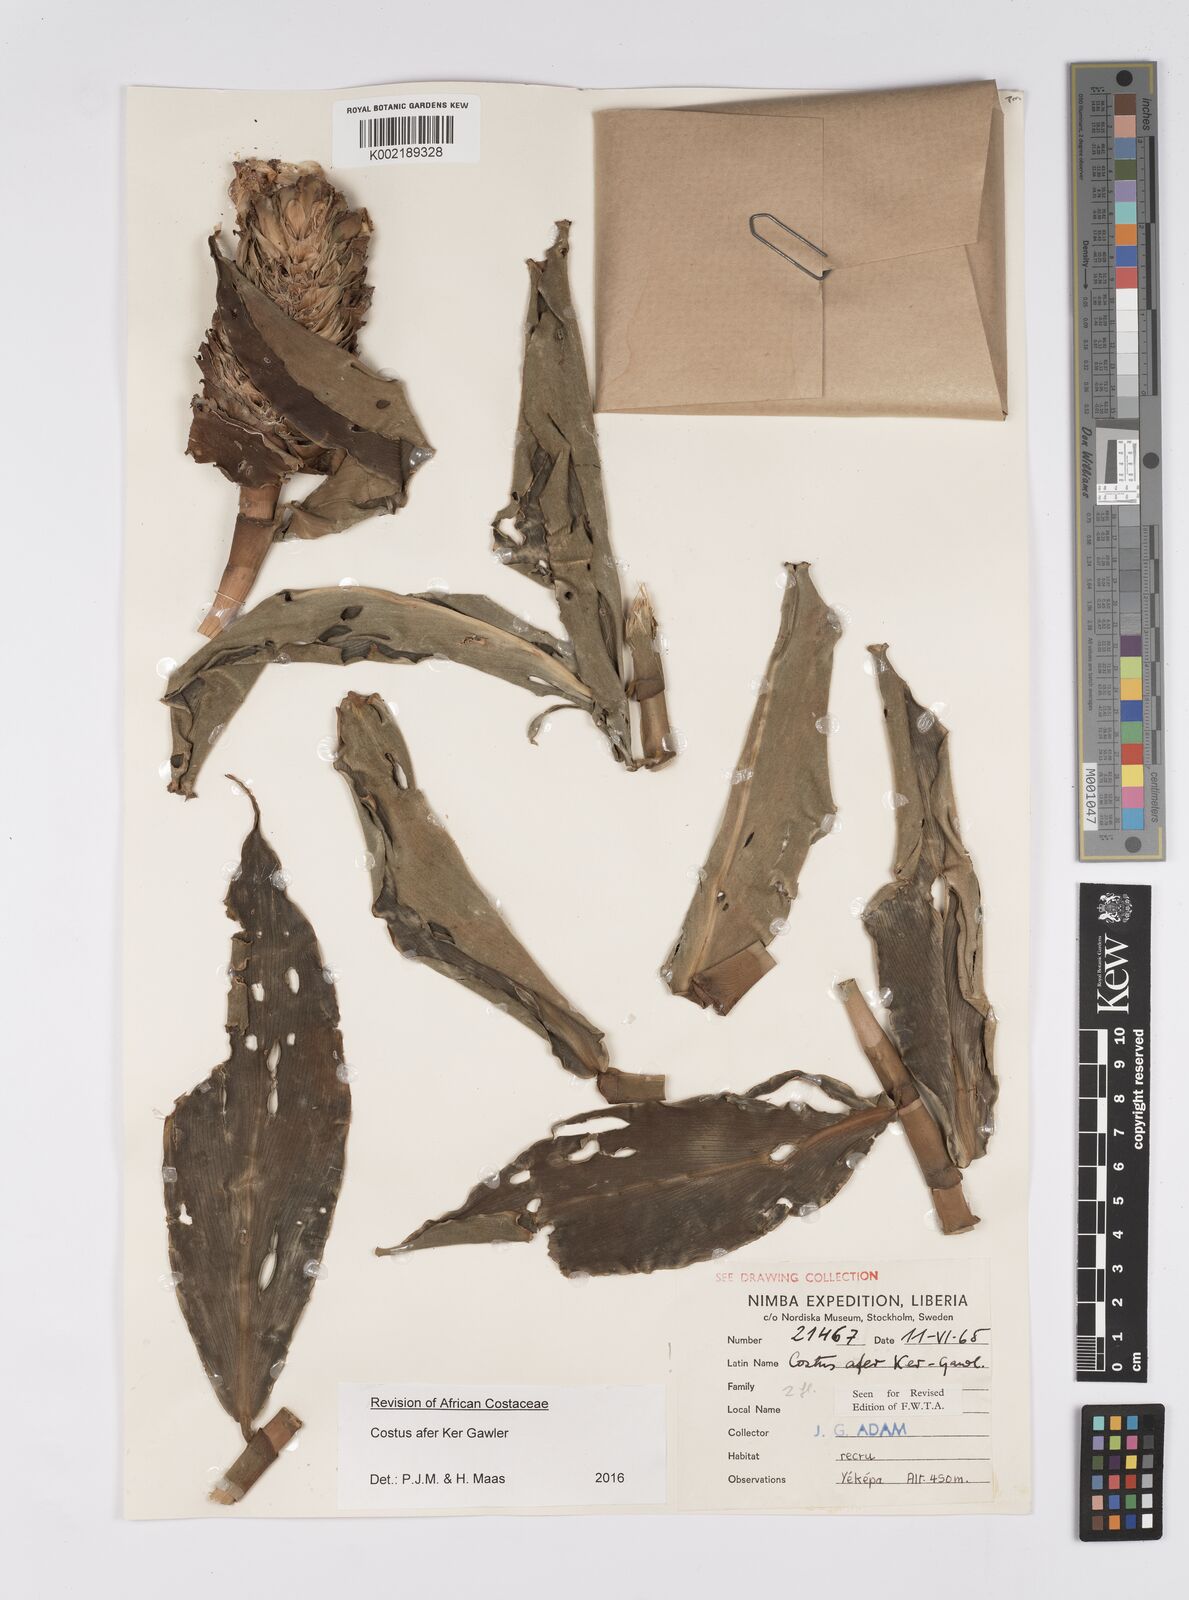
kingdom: Plantae
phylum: Tracheophyta
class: Liliopsida
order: Zingiberales
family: Costaceae
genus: Costus
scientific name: Costus afer
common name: Spiral-ginger
